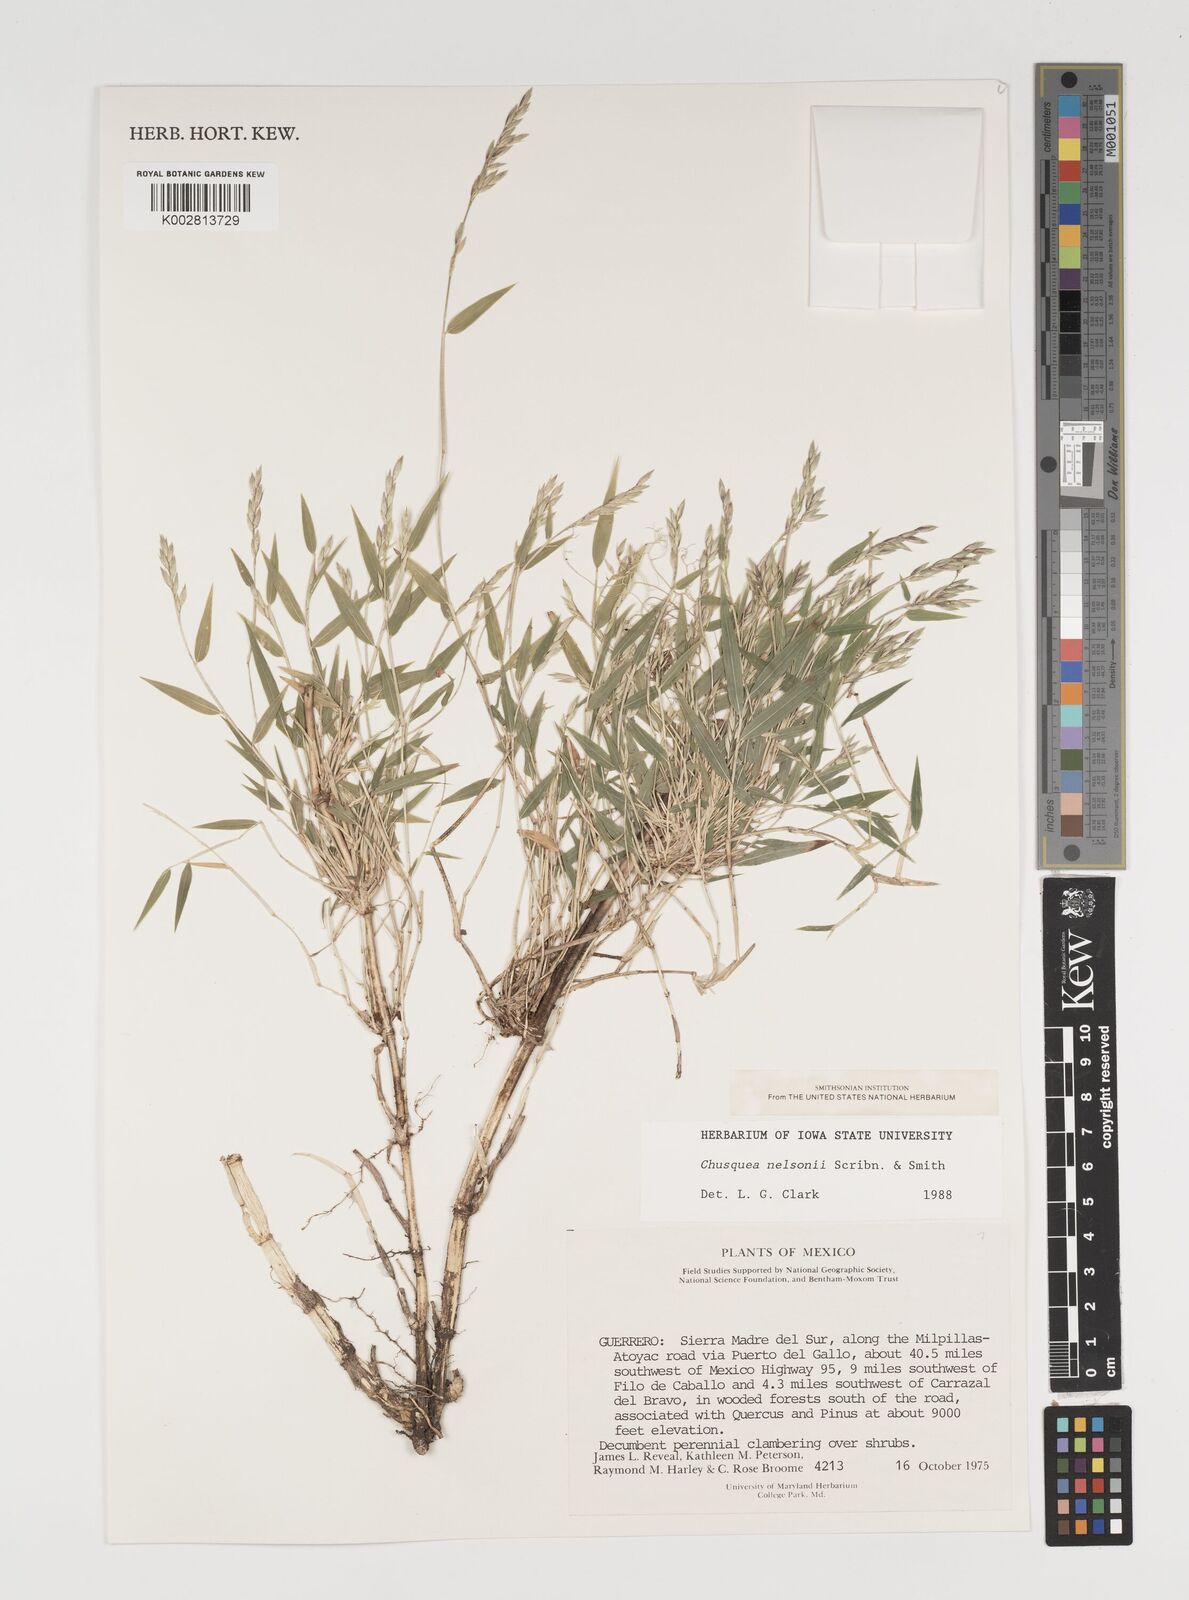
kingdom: Plantae
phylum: Tracheophyta
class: Liliopsida
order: Poales
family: Poaceae
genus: Chusquea
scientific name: Chusquea nelsonii
